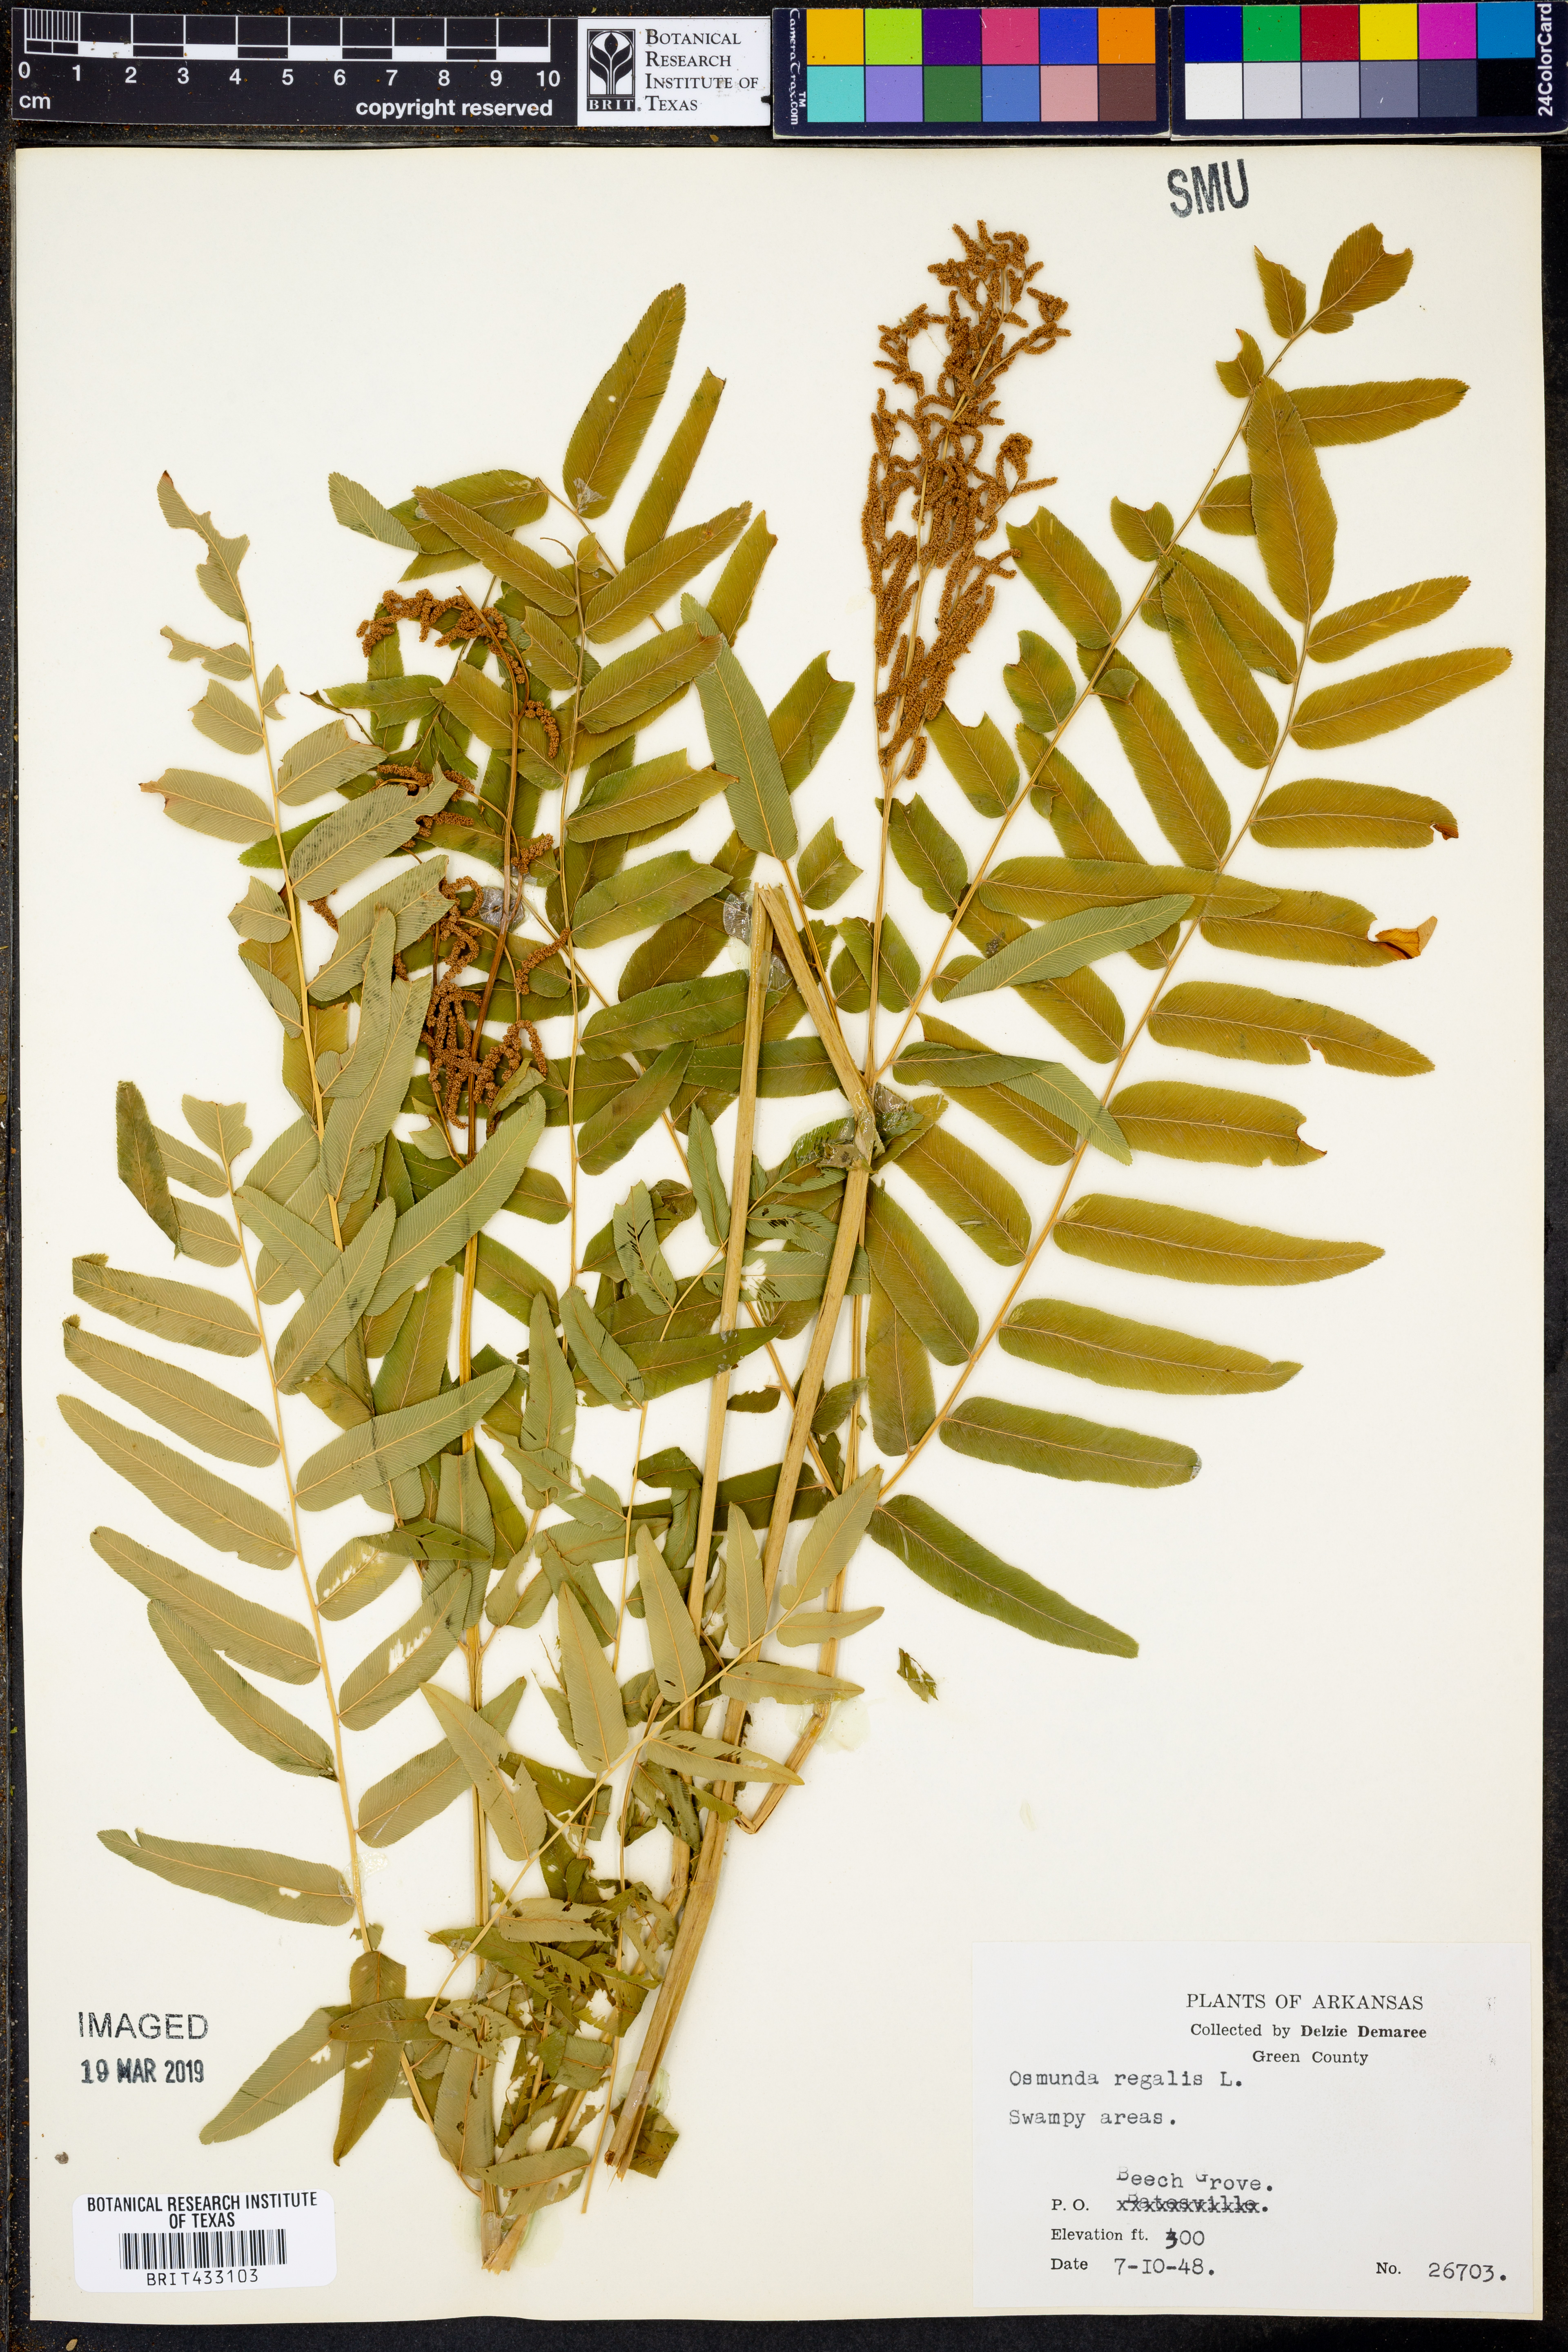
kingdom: Plantae
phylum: Tracheophyta
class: Polypodiopsida
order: Osmundales
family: Osmundaceae
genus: Osmunda
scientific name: Osmunda regalis
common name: Royal fern
